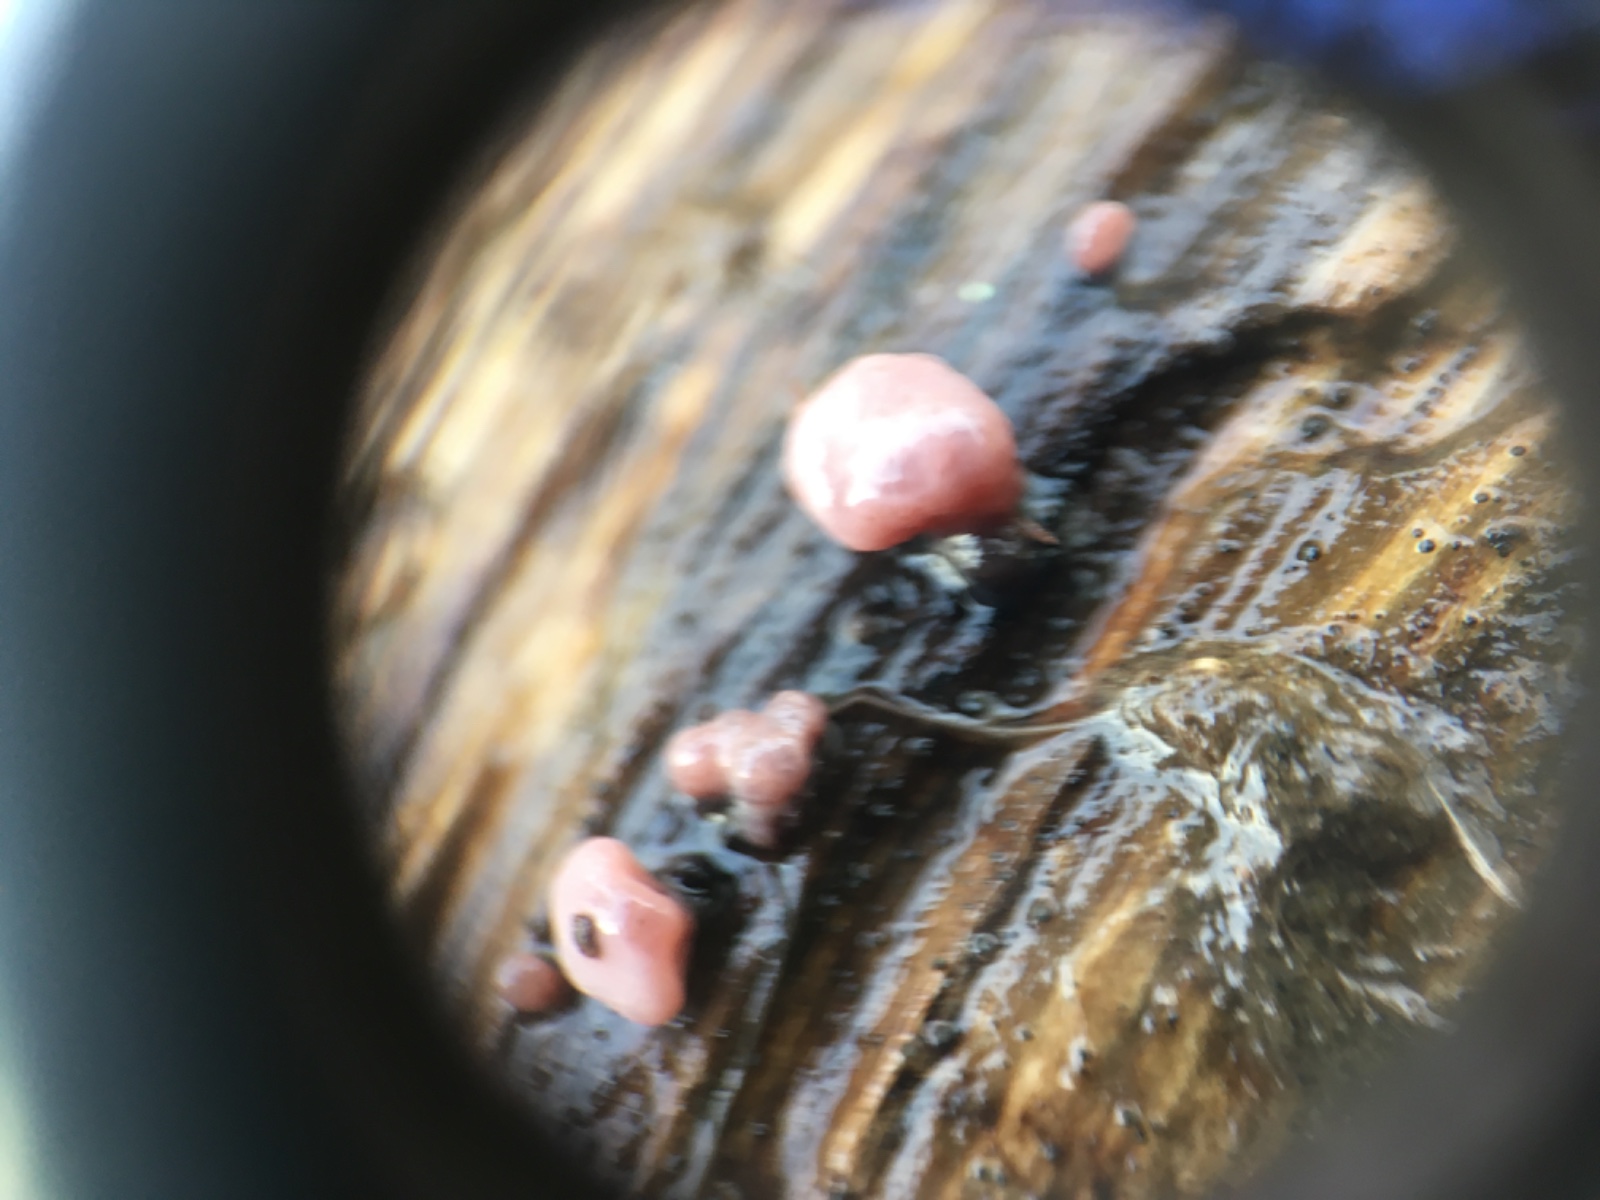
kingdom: Fungi
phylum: Ascomycota
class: Leotiomycetes
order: Helotiales
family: Gelatinodiscaceae
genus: Ascocoryne
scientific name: Ascocoryne sarcoides
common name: rødlilla sejskive
